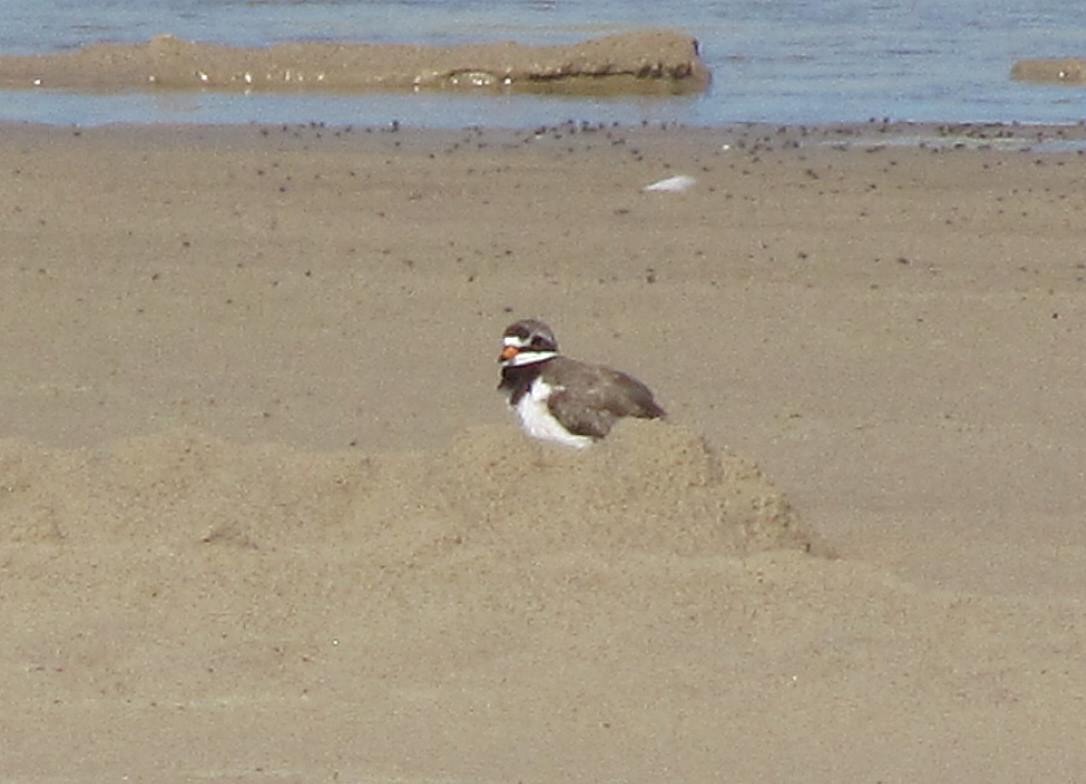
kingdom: Animalia
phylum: Chordata
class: Aves
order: Charadriiformes
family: Charadriidae
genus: Charadrius
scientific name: Charadrius hiaticula
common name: Stor præstekrave
